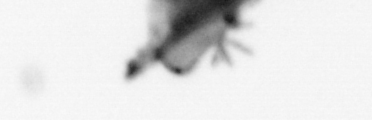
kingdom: Animalia
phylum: Cnidaria
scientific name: Cnidaria
